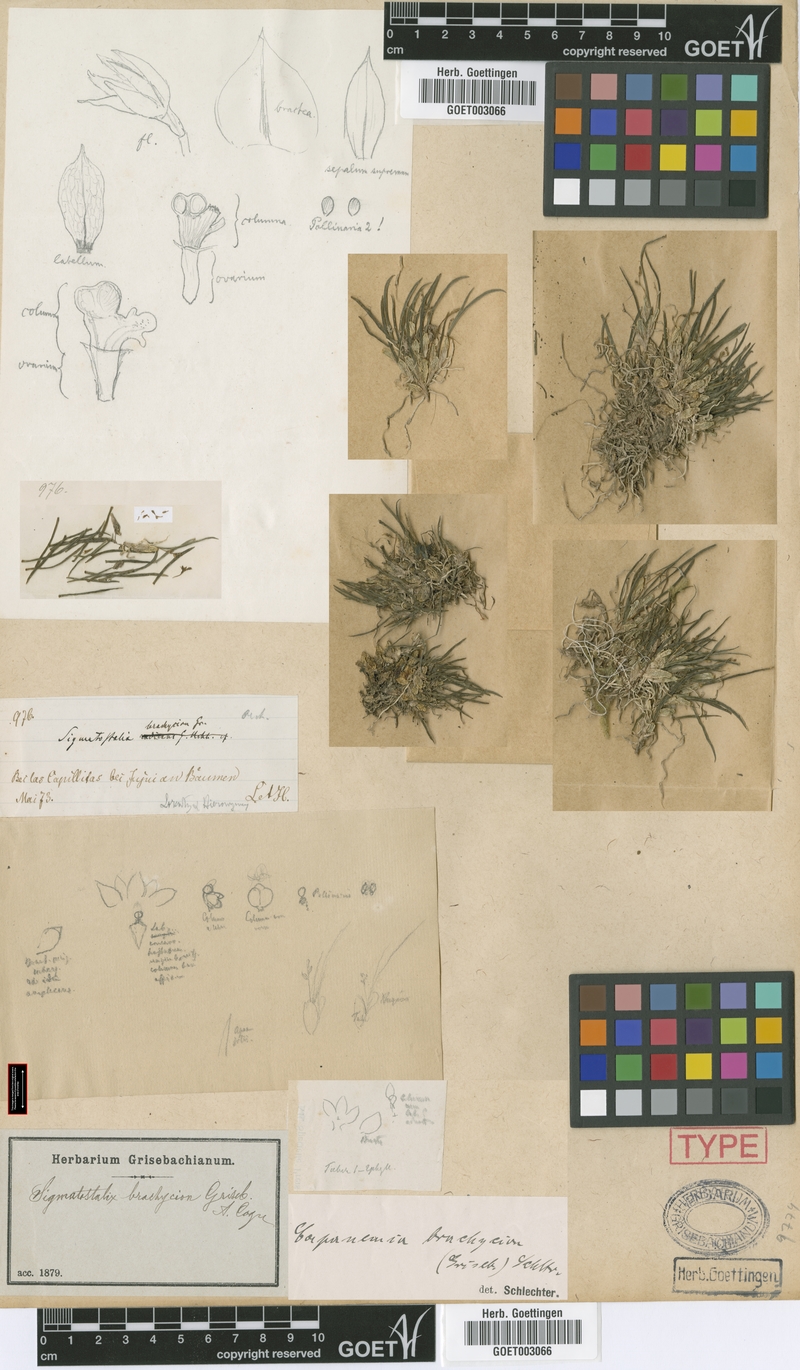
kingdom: Plantae
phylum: Tracheophyta
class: Liliopsida
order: Asparagales
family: Orchidaceae
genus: Capanemia
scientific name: Capanemia brachycion
